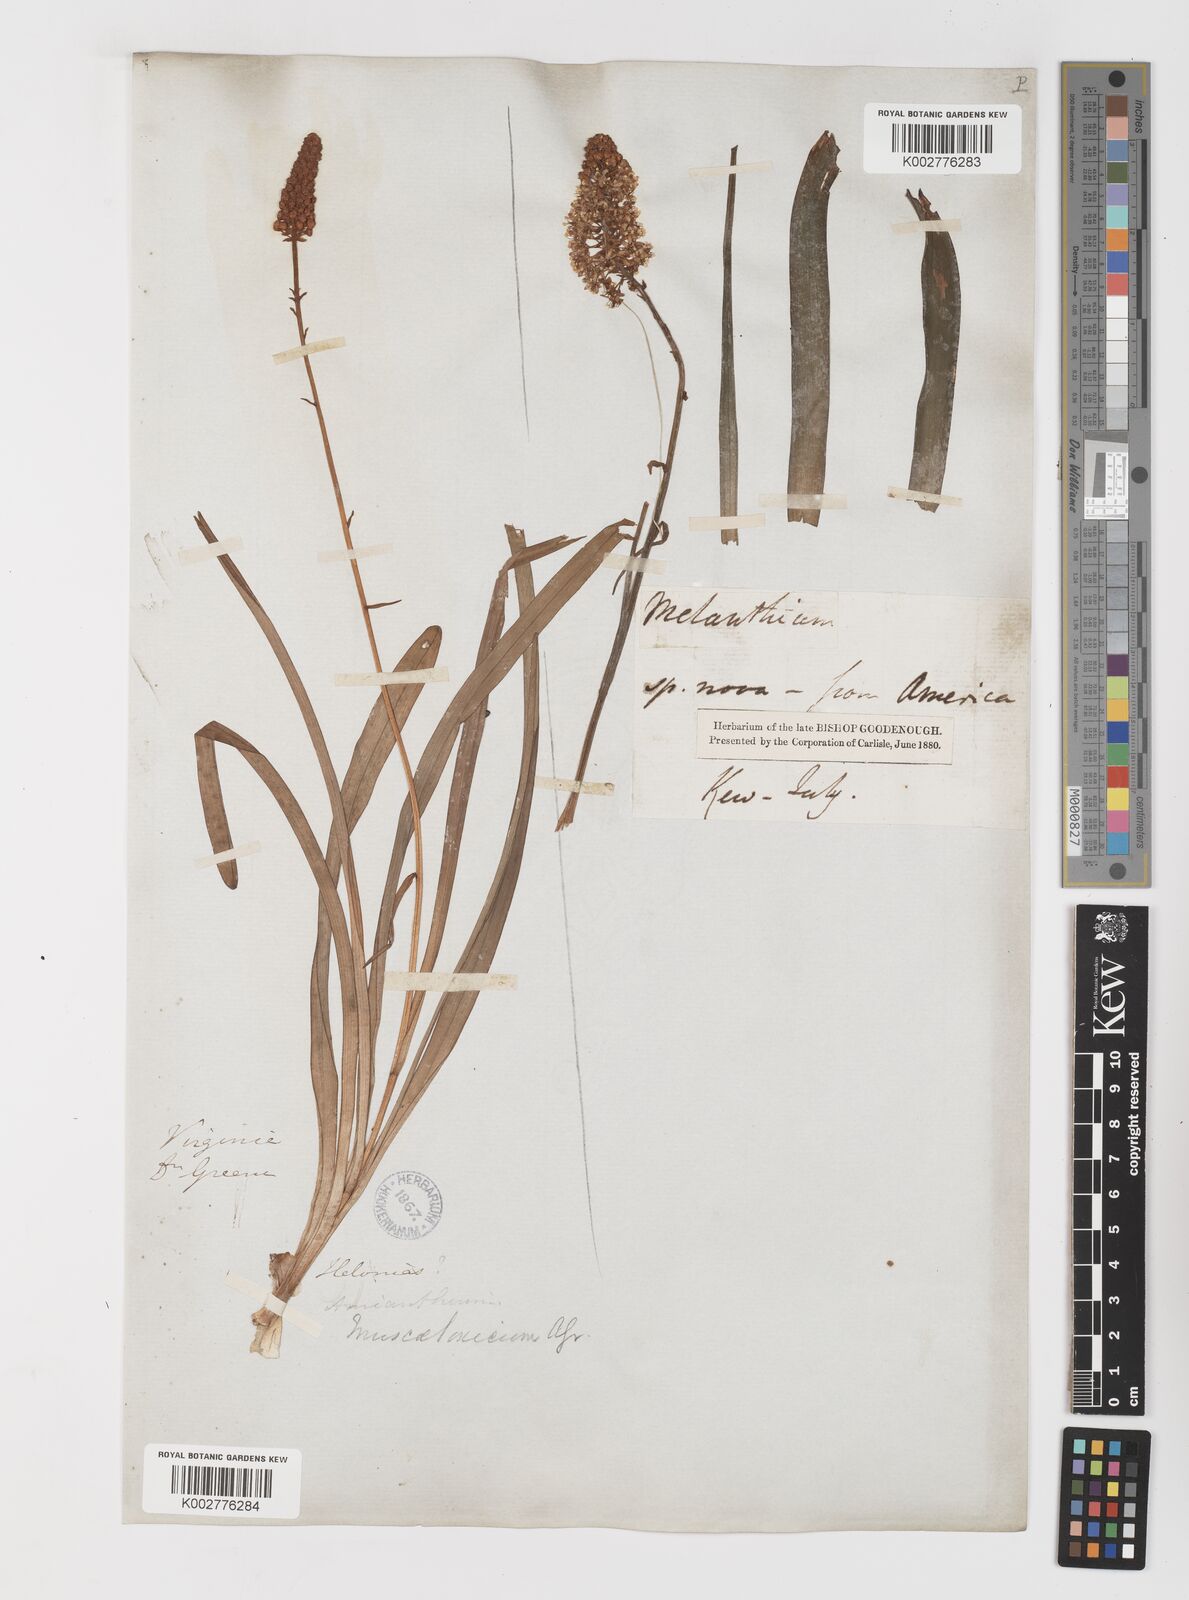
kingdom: Plantae
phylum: Tracheophyta
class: Liliopsida
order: Liliales
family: Melanthiaceae
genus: Amianthium
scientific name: Amianthium muscitoxicum
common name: Fly-poison
